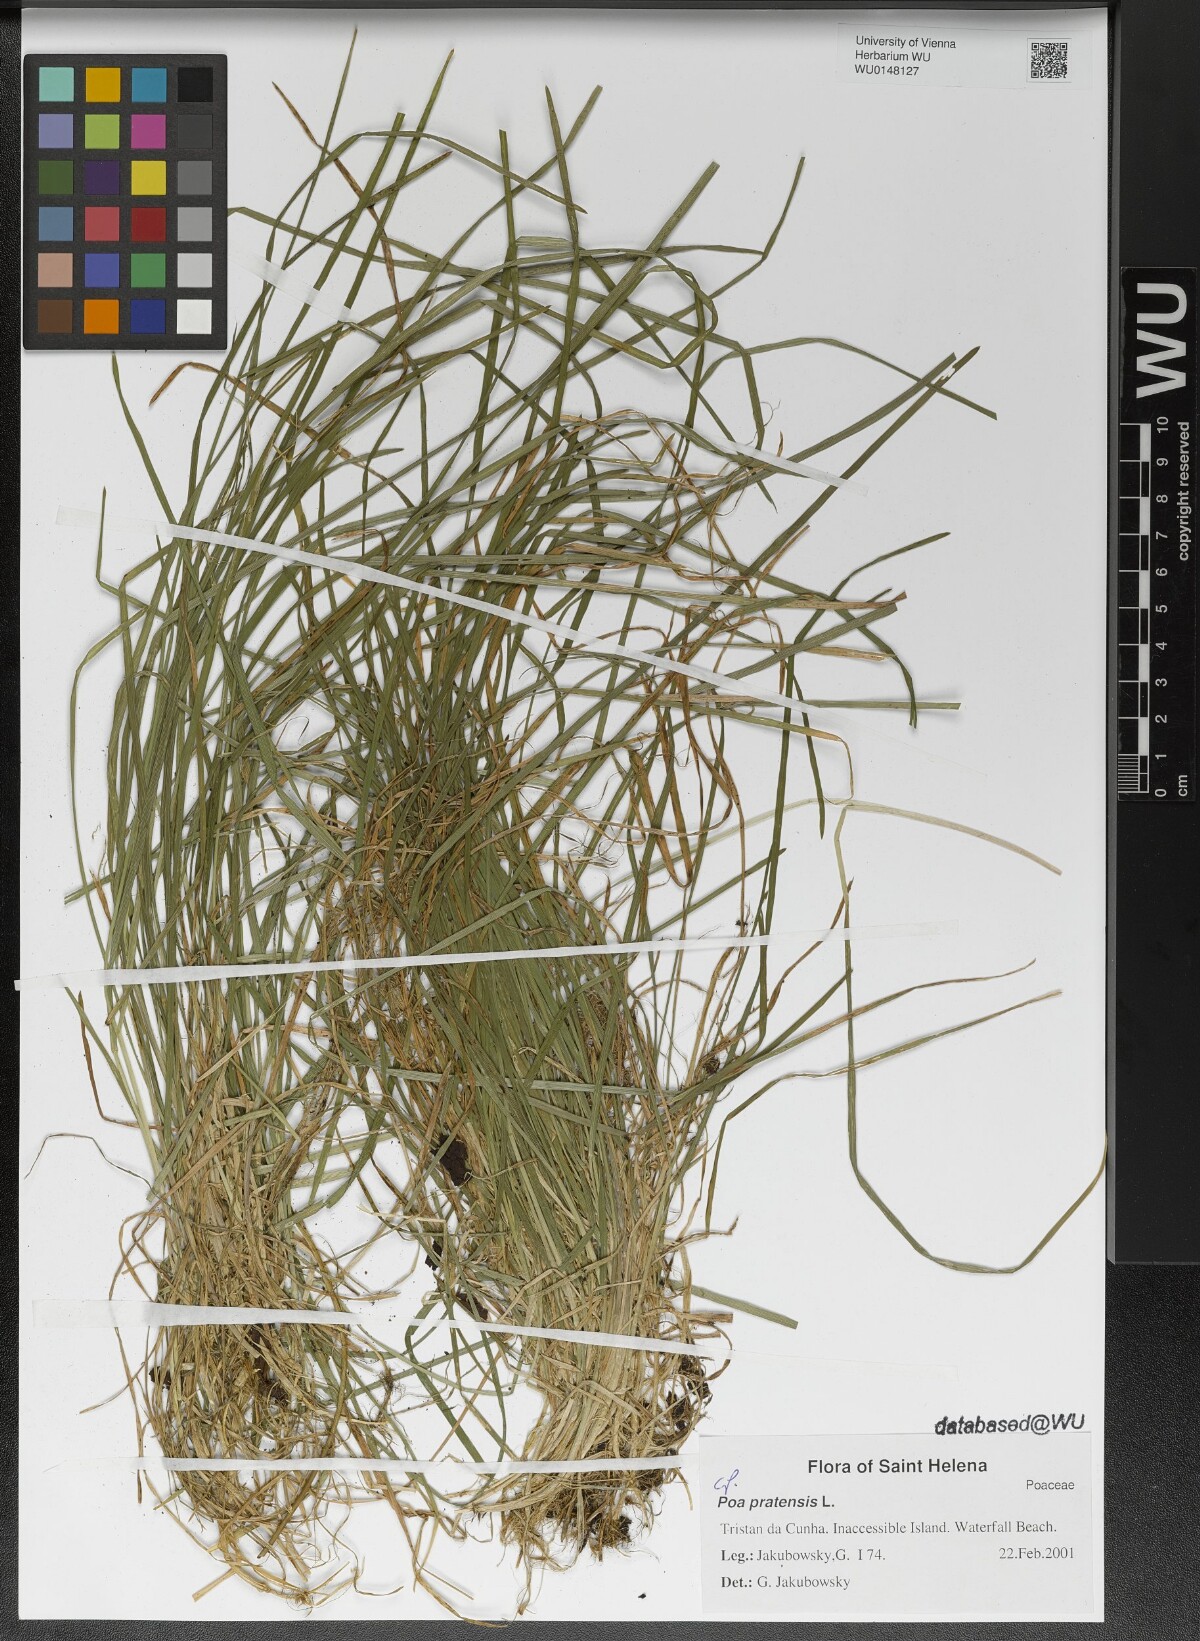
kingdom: Plantae
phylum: Tracheophyta
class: Liliopsida
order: Poales
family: Poaceae
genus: Poa
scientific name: Poa pratensis
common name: Kentucky bluegrass
